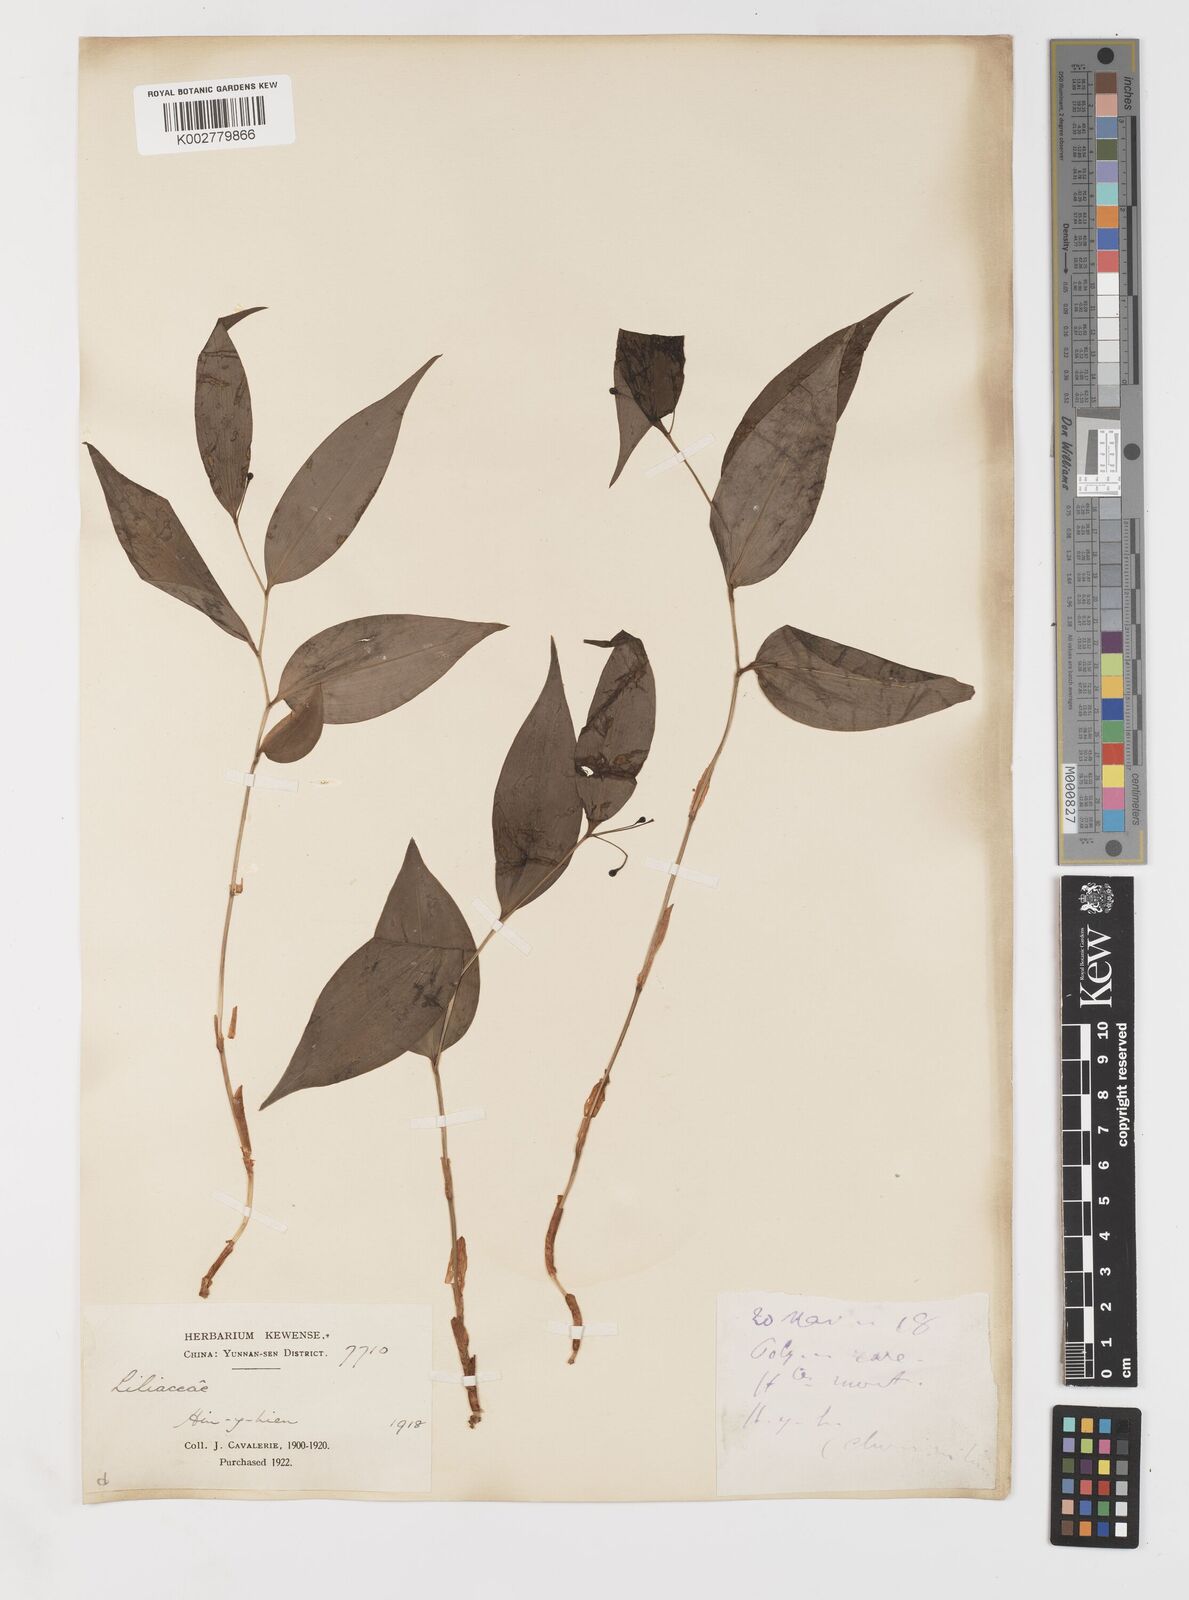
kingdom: Plantae
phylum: Tracheophyta
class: Liliopsida
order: Liliales
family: Colchicaceae
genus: Disporum
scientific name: Disporum
